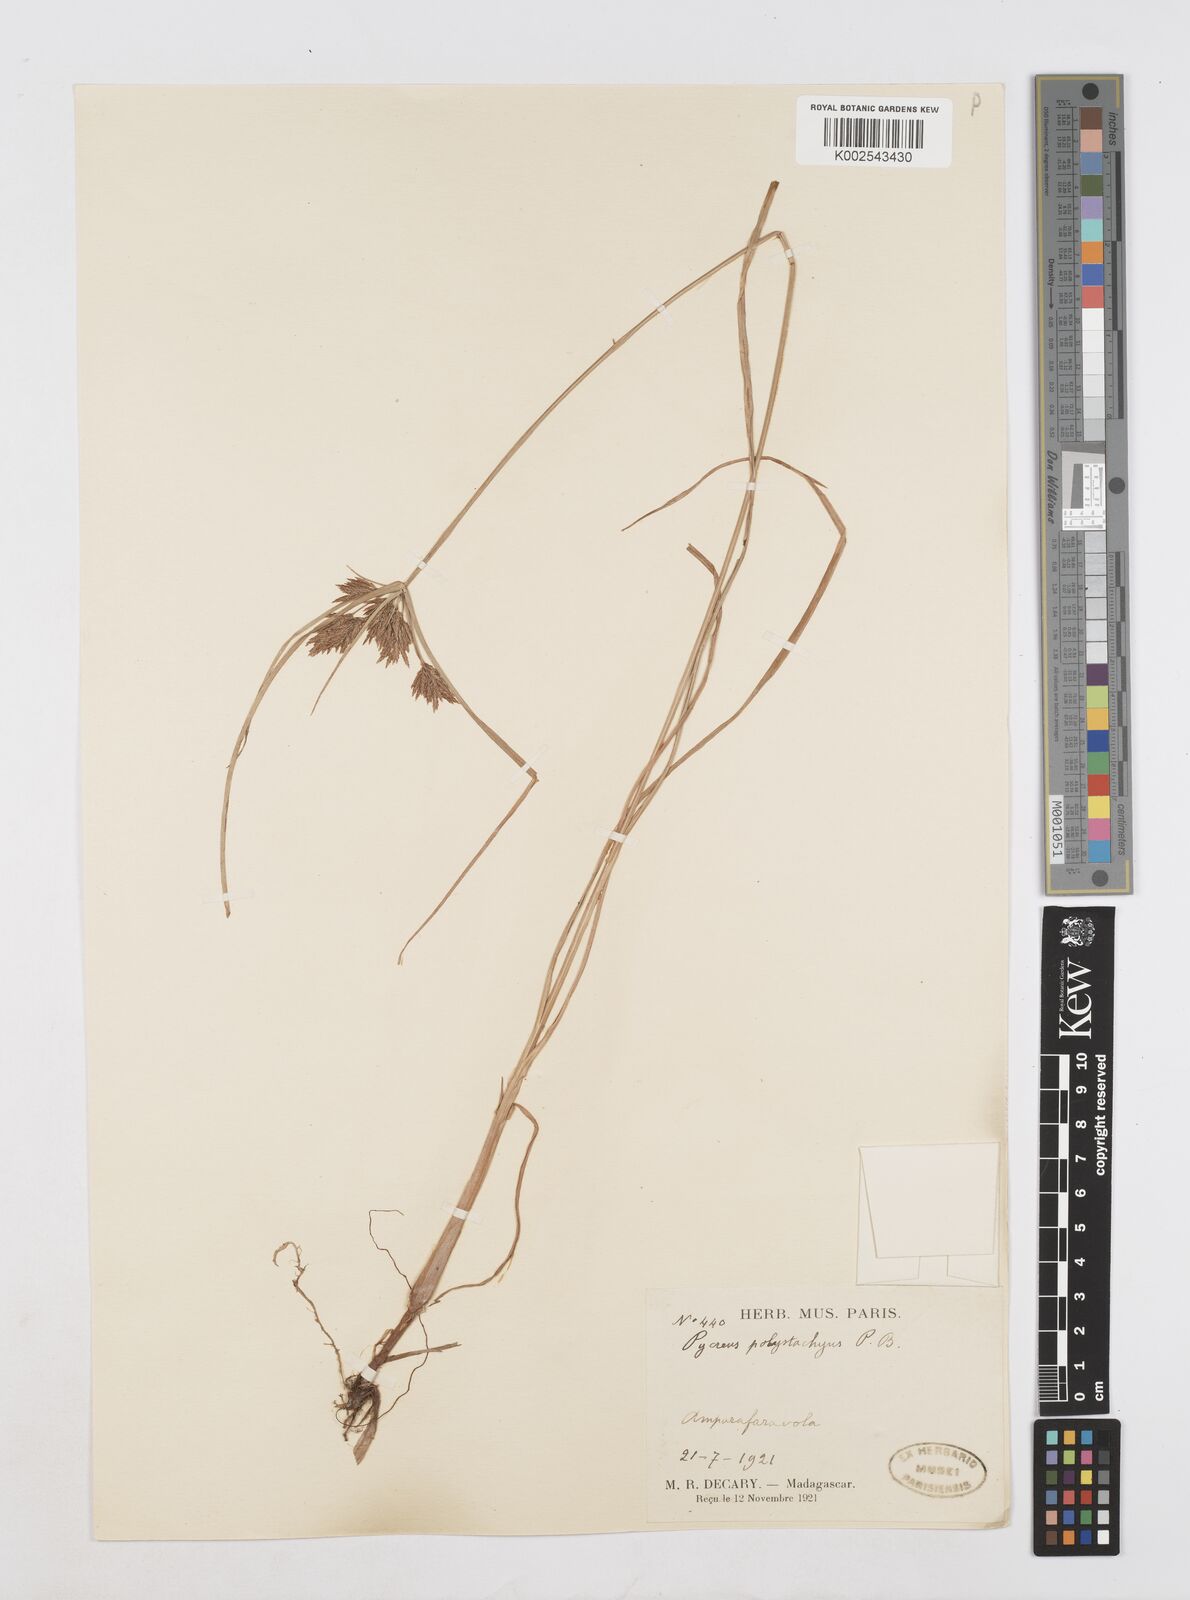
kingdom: Plantae
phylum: Tracheophyta
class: Liliopsida
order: Poales
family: Cyperaceae
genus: Cyperus
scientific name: Cyperus polystachyos
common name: Bunchy flat sedge
